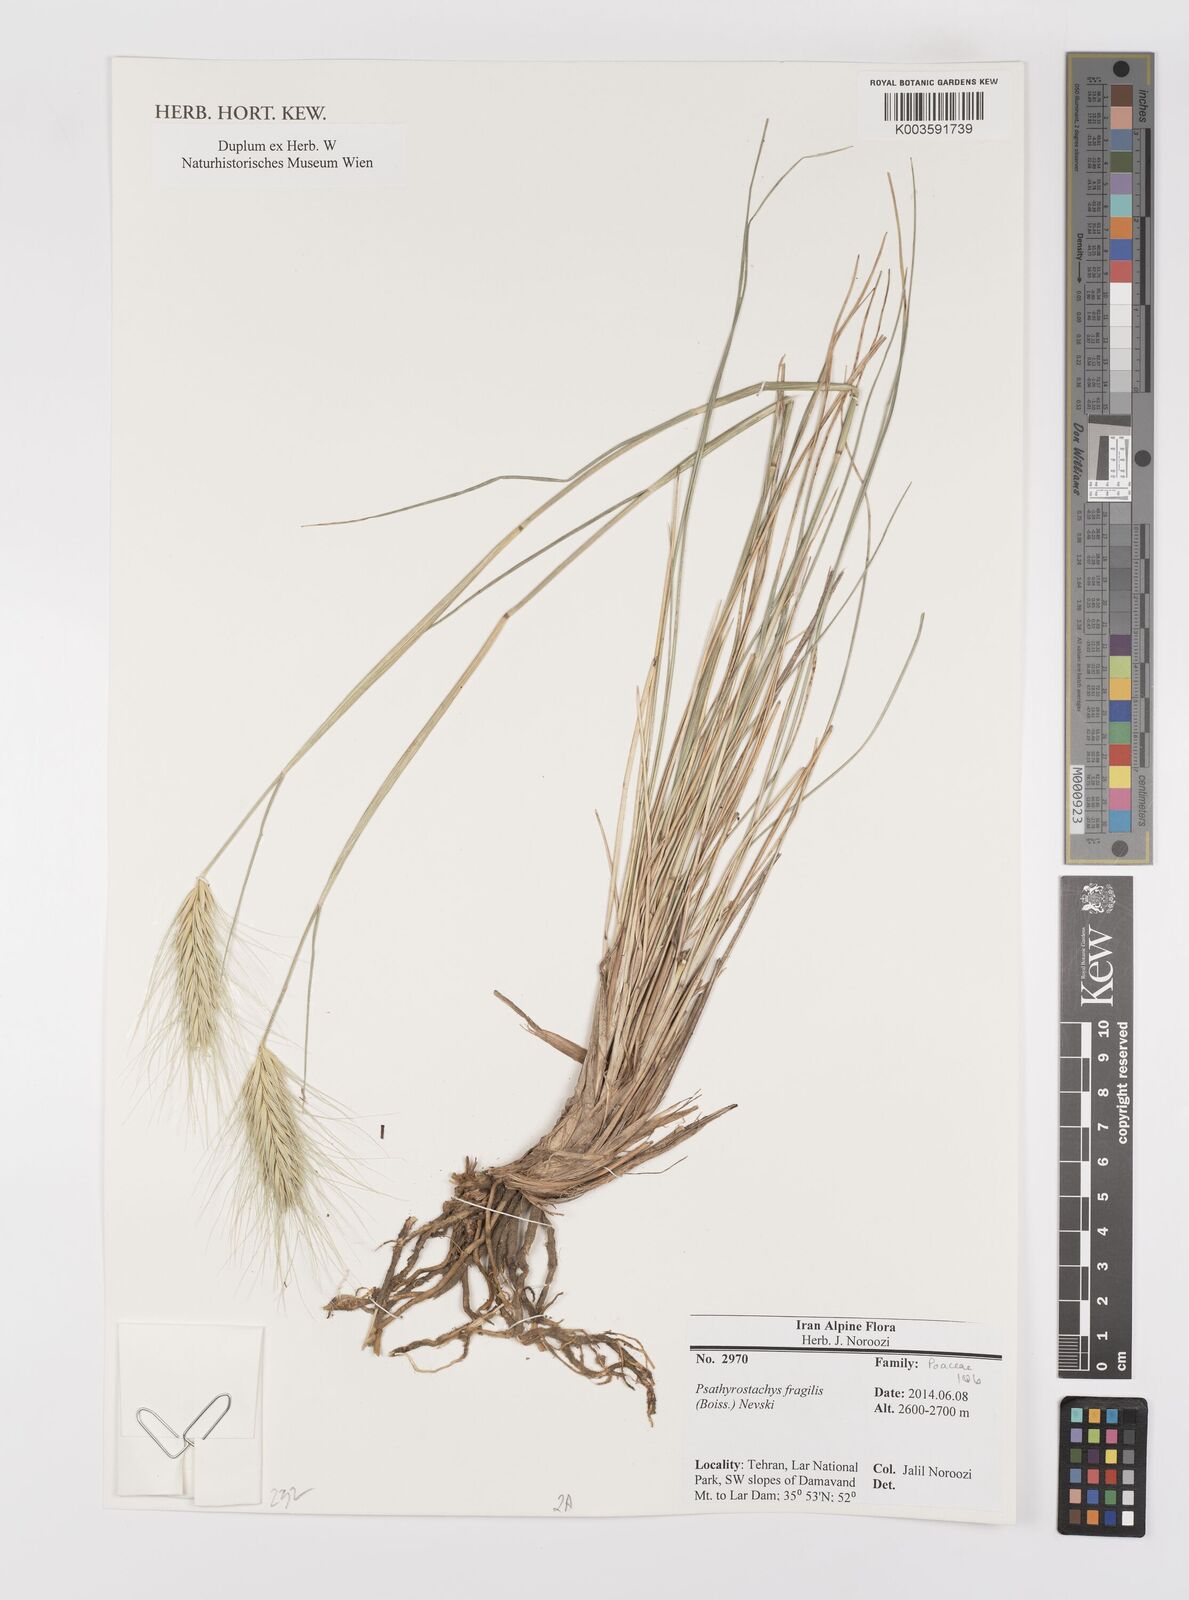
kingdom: Plantae
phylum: Tracheophyta
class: Liliopsida
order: Poales
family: Poaceae
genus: Psathyrostachys
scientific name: Psathyrostachys fragilis
